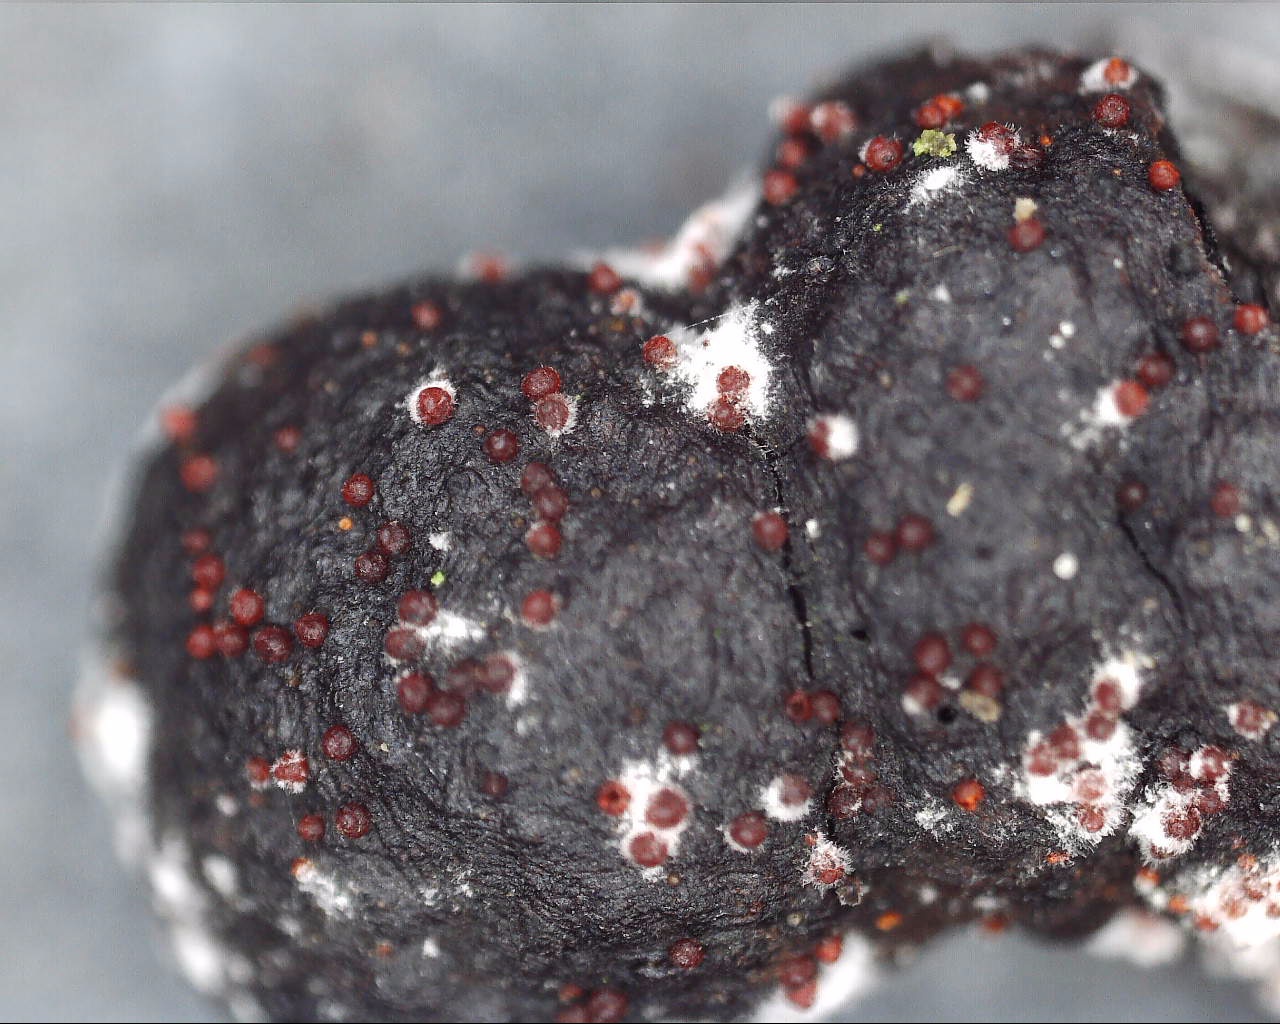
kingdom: Fungi
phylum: Ascomycota
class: Sordariomycetes
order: Hypocreales
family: Nectriaceae
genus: Cosmospora
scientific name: Cosmospora arxii
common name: kuljordbær-cinnobersvamp
